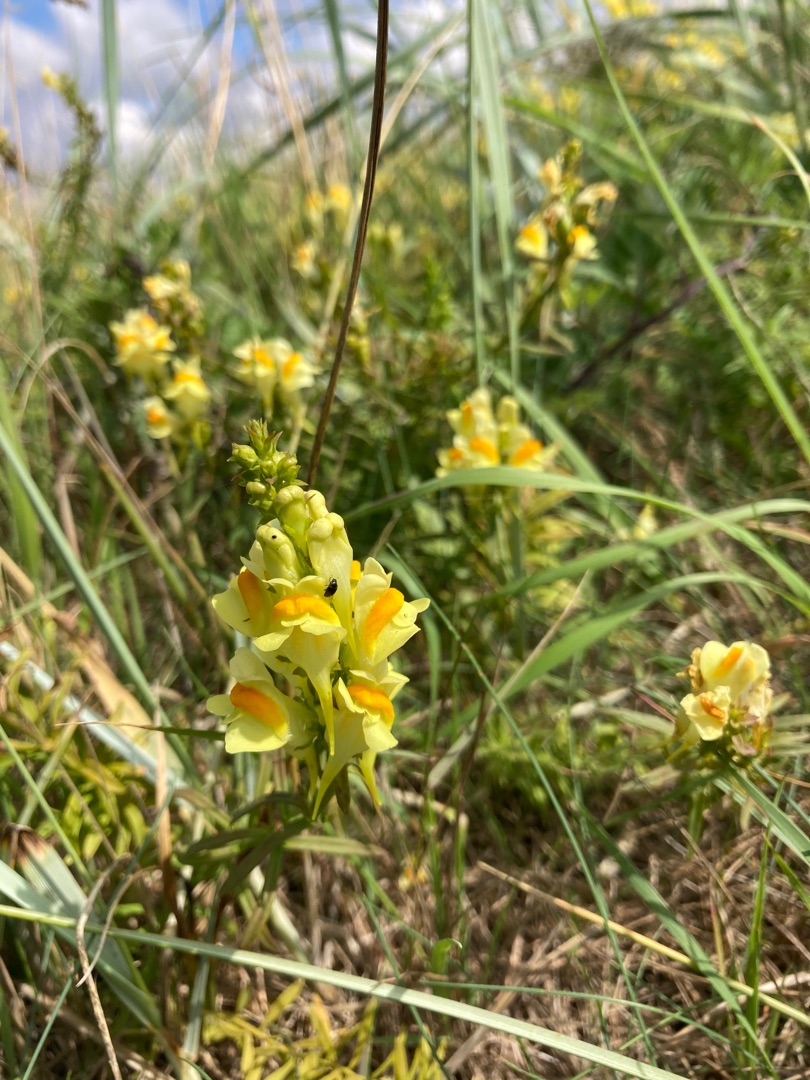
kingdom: Plantae
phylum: Tracheophyta
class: Magnoliopsida
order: Lamiales
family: Plantaginaceae
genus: Linaria
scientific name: Linaria vulgaris
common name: Almindelig torskemund
